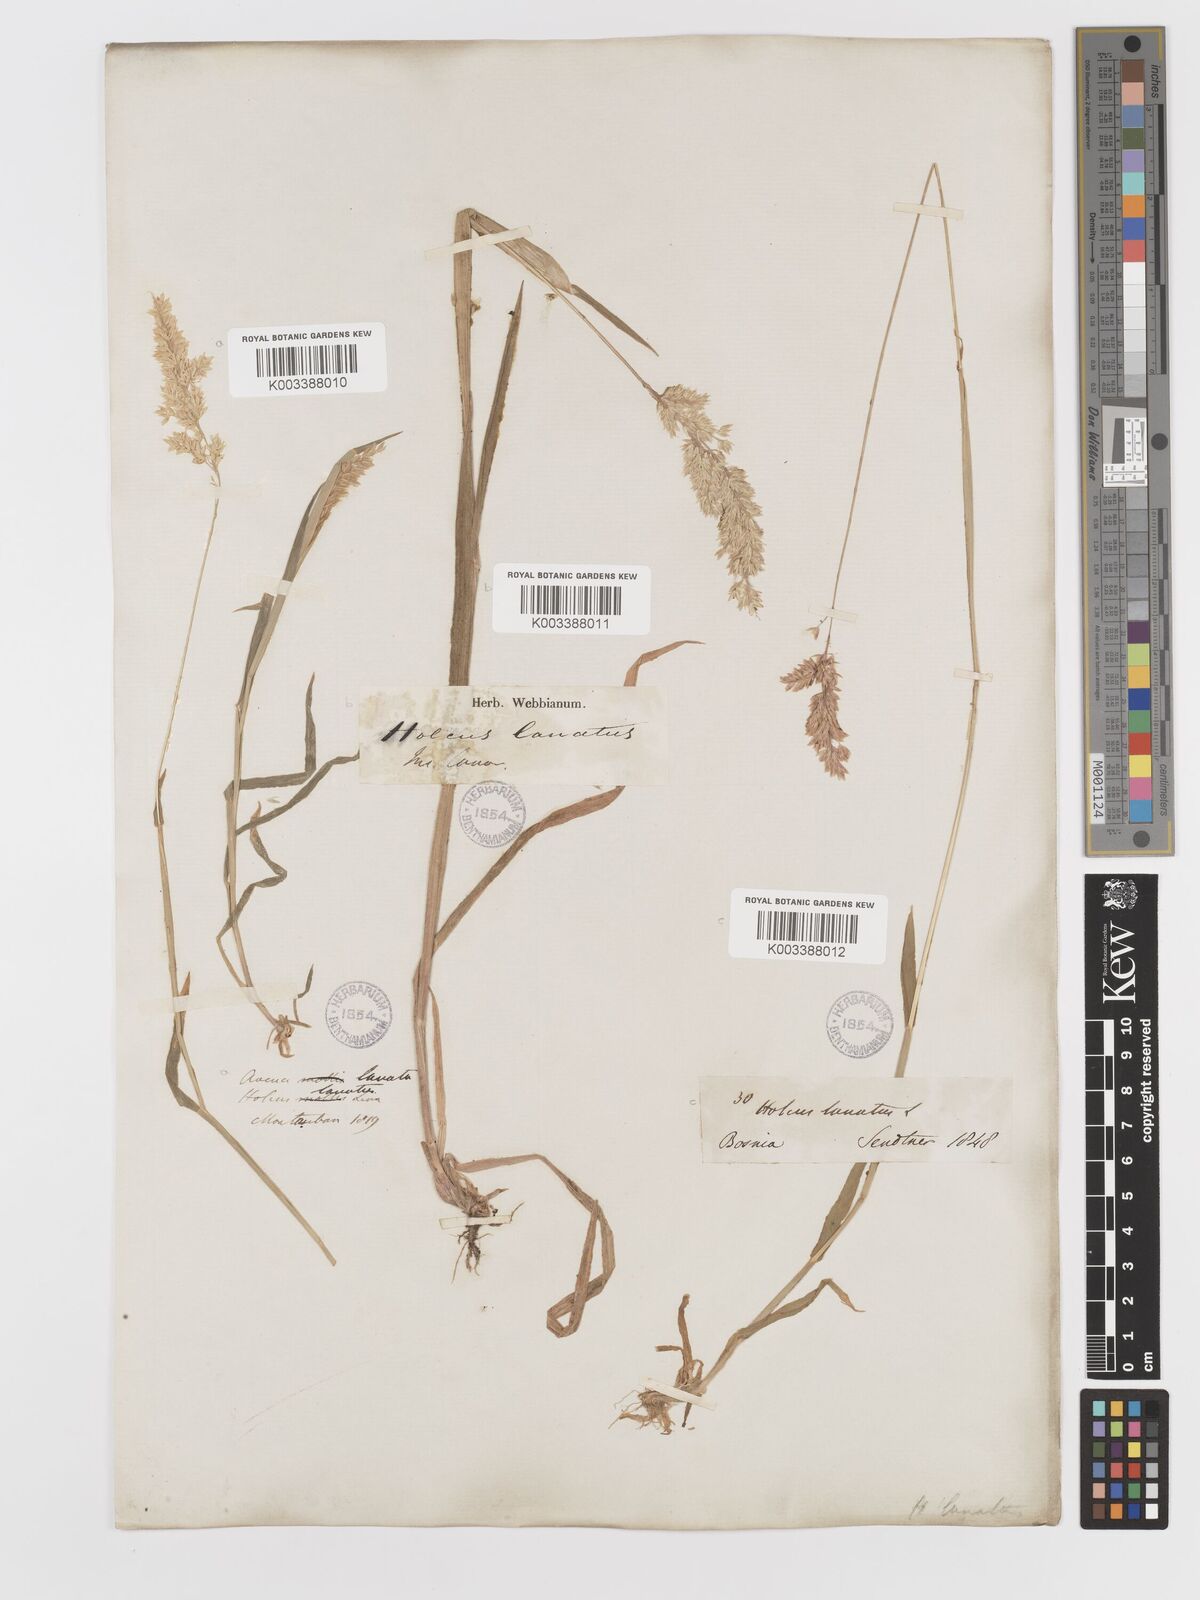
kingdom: Plantae
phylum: Tracheophyta
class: Liliopsida
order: Poales
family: Poaceae
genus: Holcus
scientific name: Holcus lanatus
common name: Yorkshire-fog
